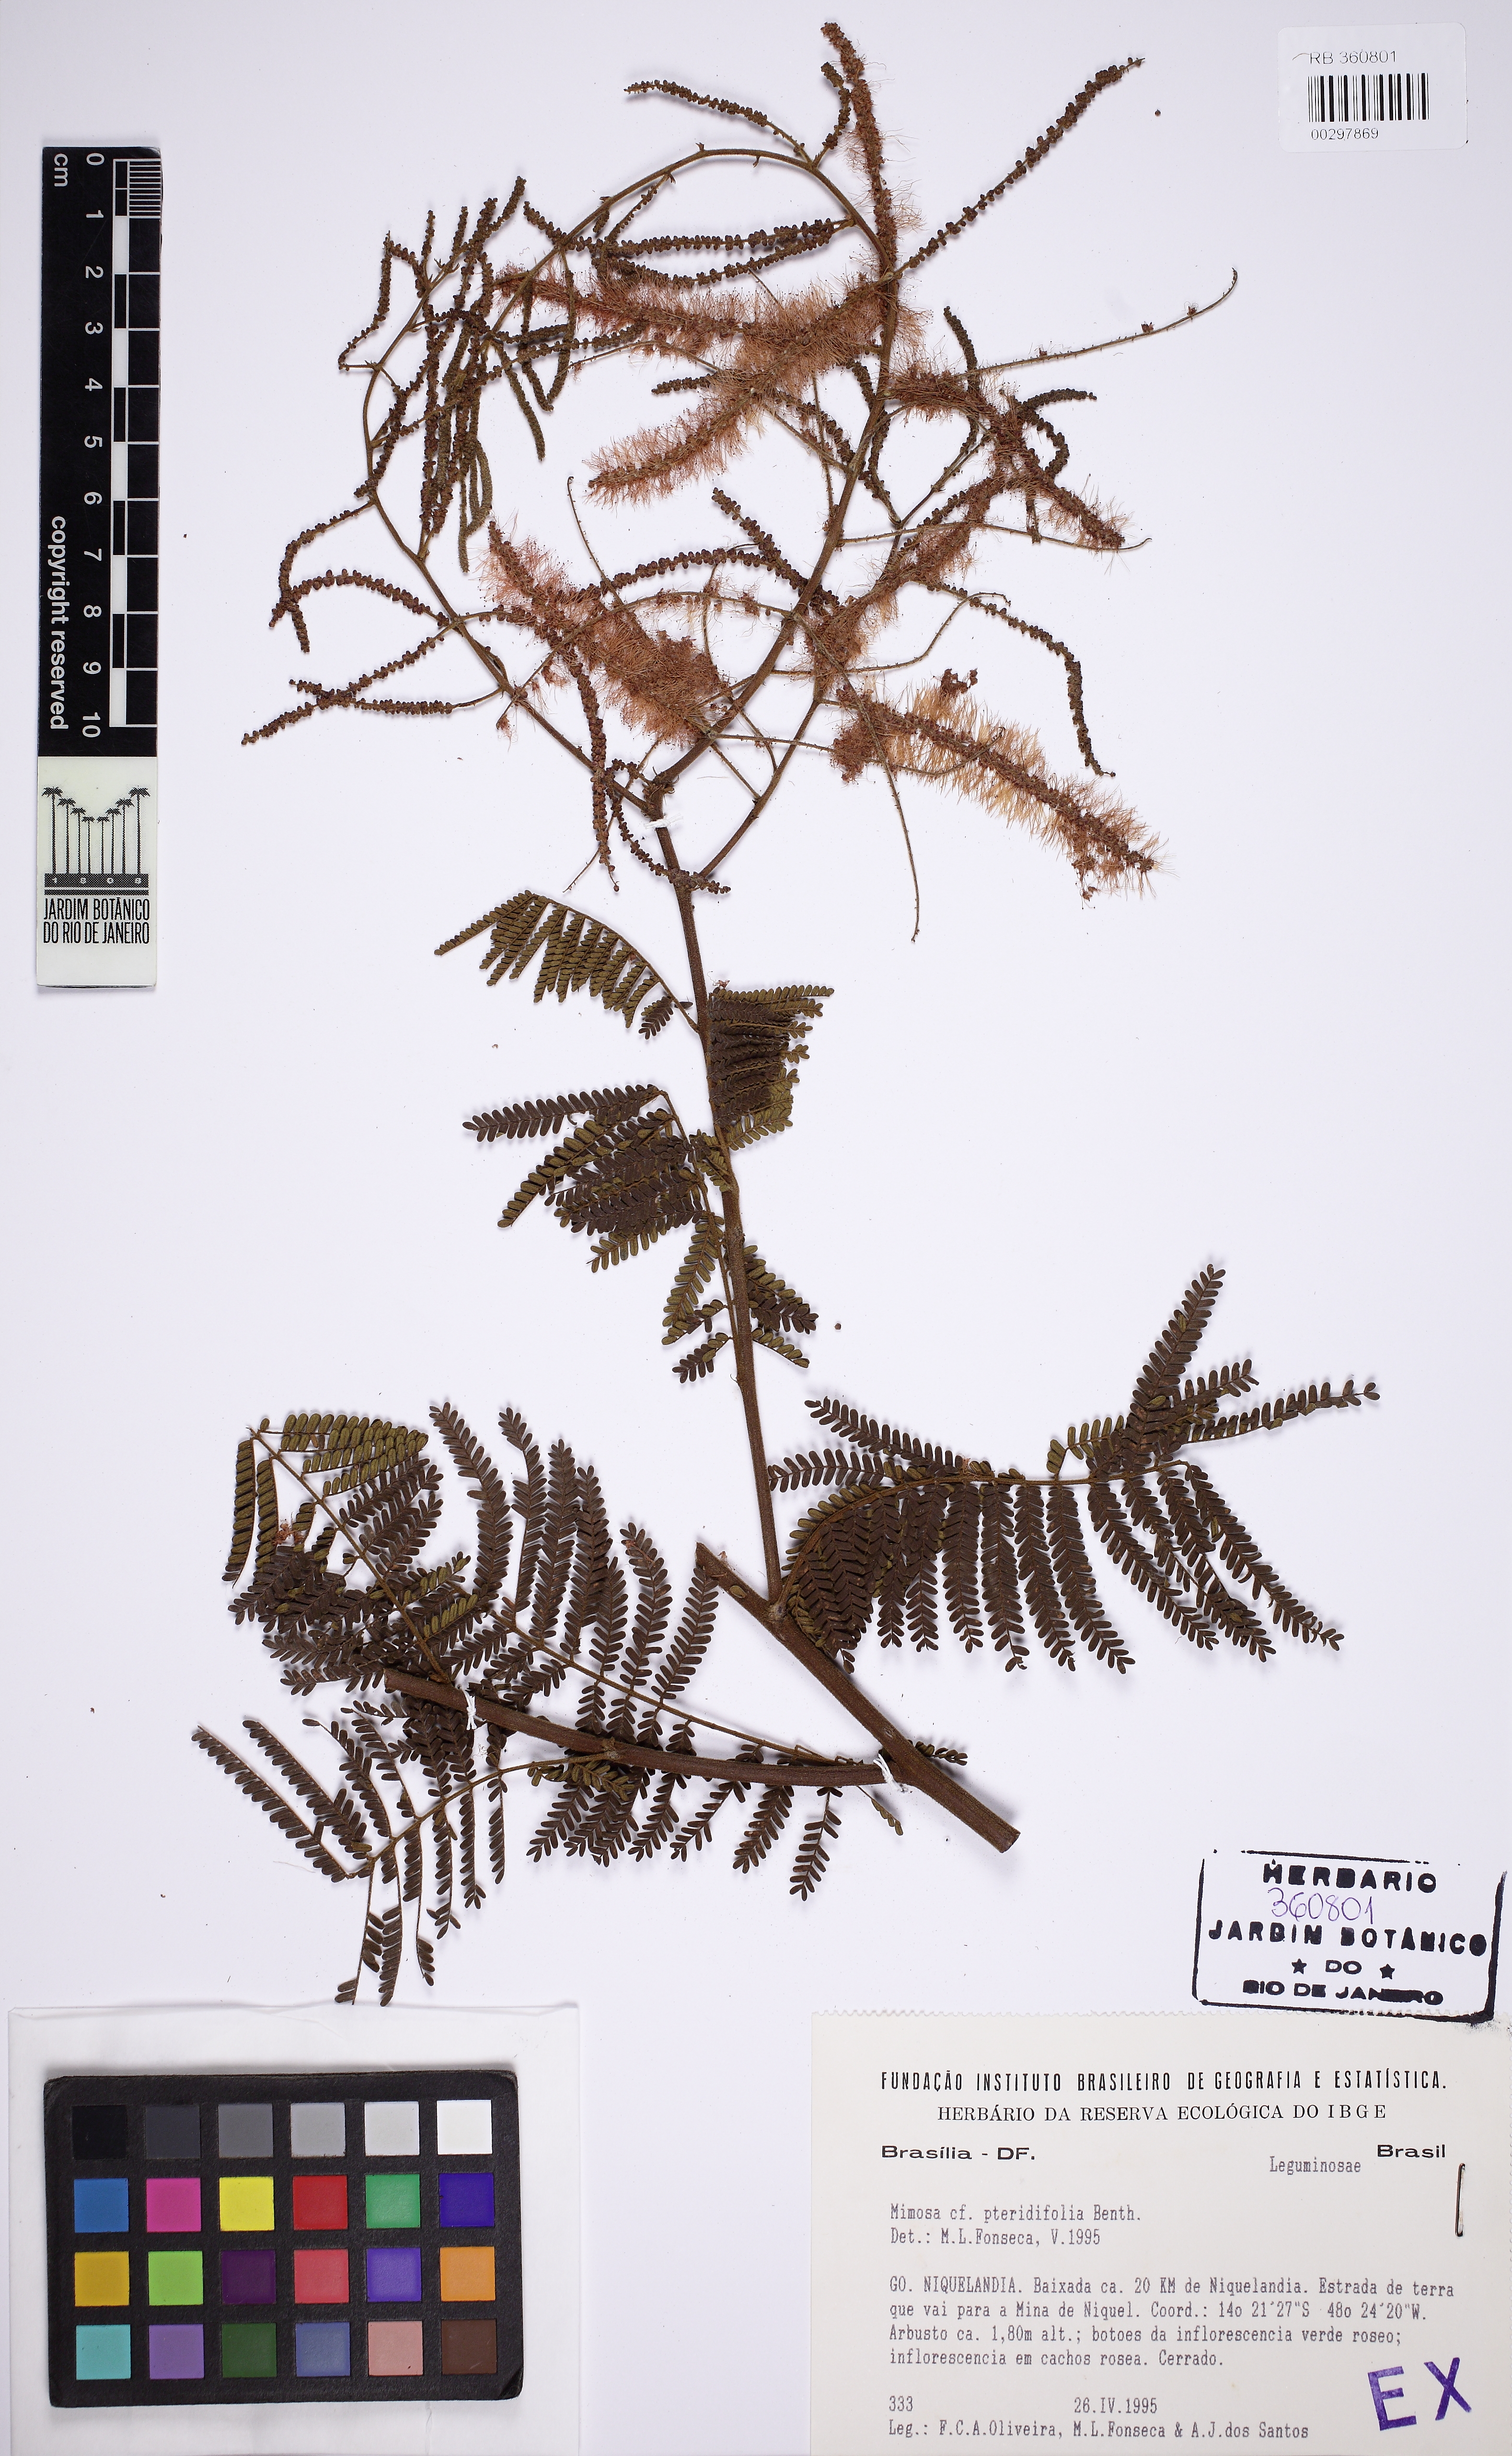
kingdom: Plantae
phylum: Tracheophyta
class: Magnoliopsida
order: Fabales
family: Fabaceae
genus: Mimosa
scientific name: Mimosa pteridifolia
